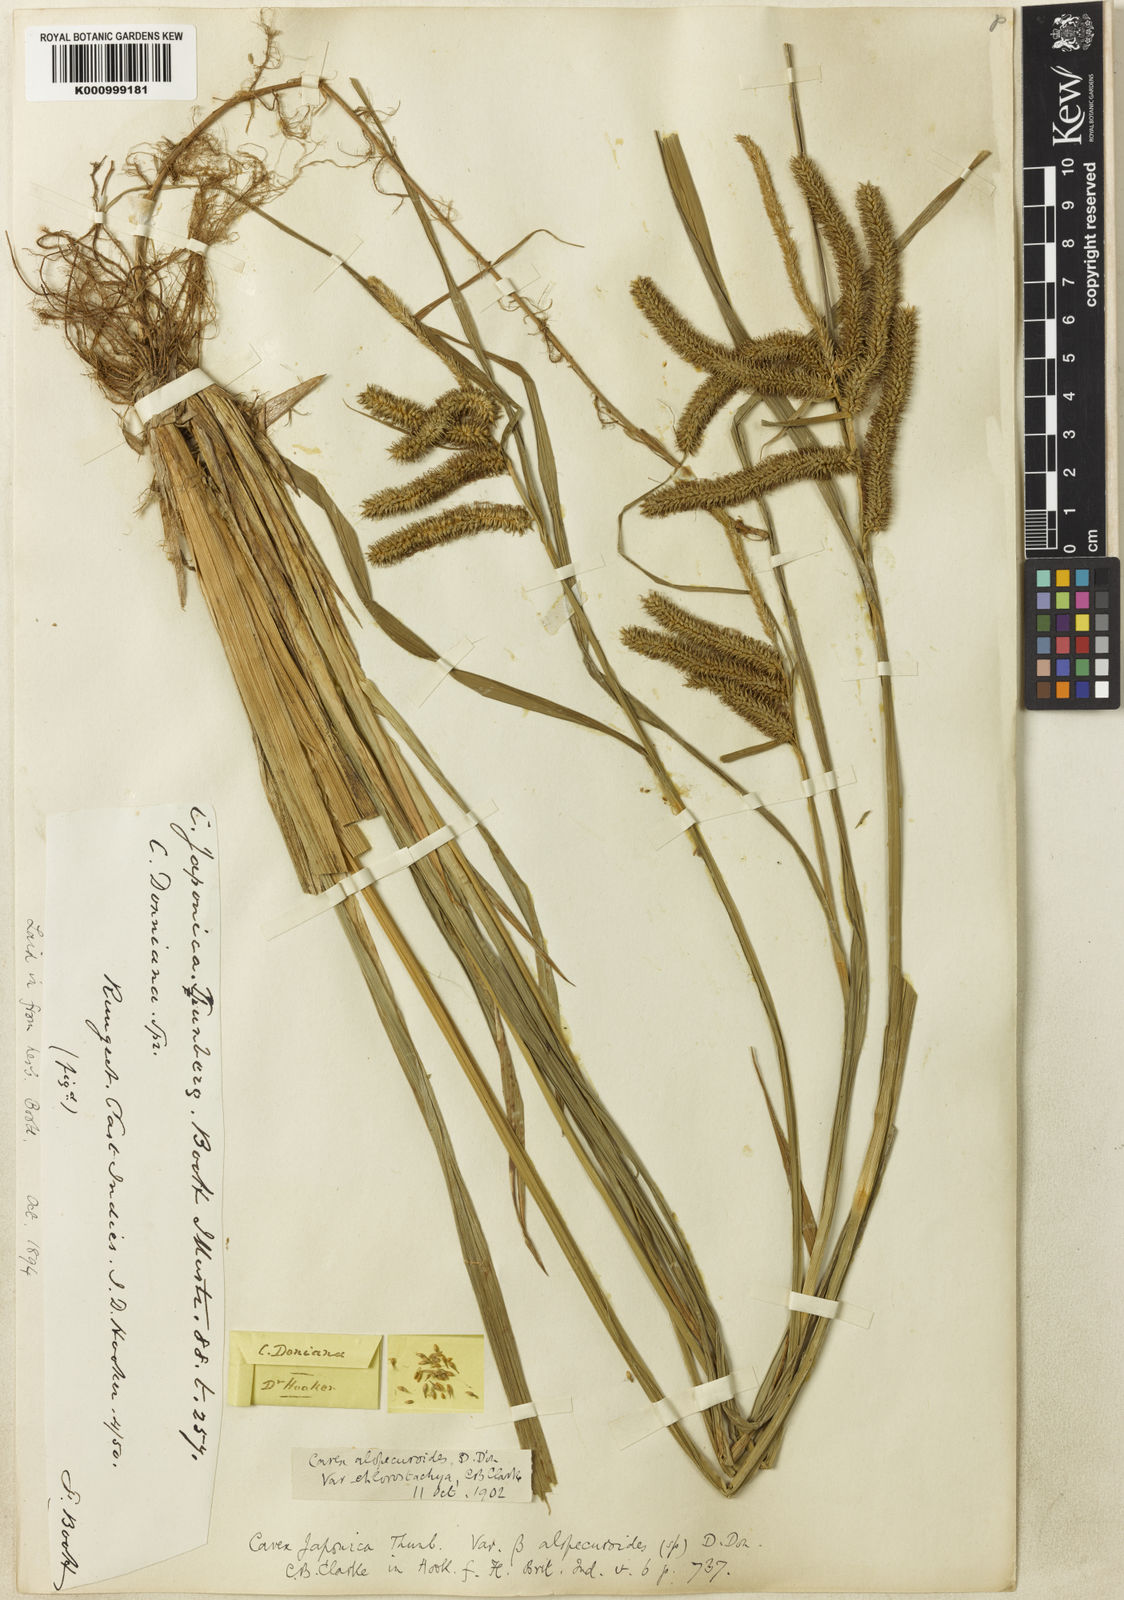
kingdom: Plantae
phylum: Tracheophyta
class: Liliopsida
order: Poales
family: Cyperaceae
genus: Carex
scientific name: Carex japonica
